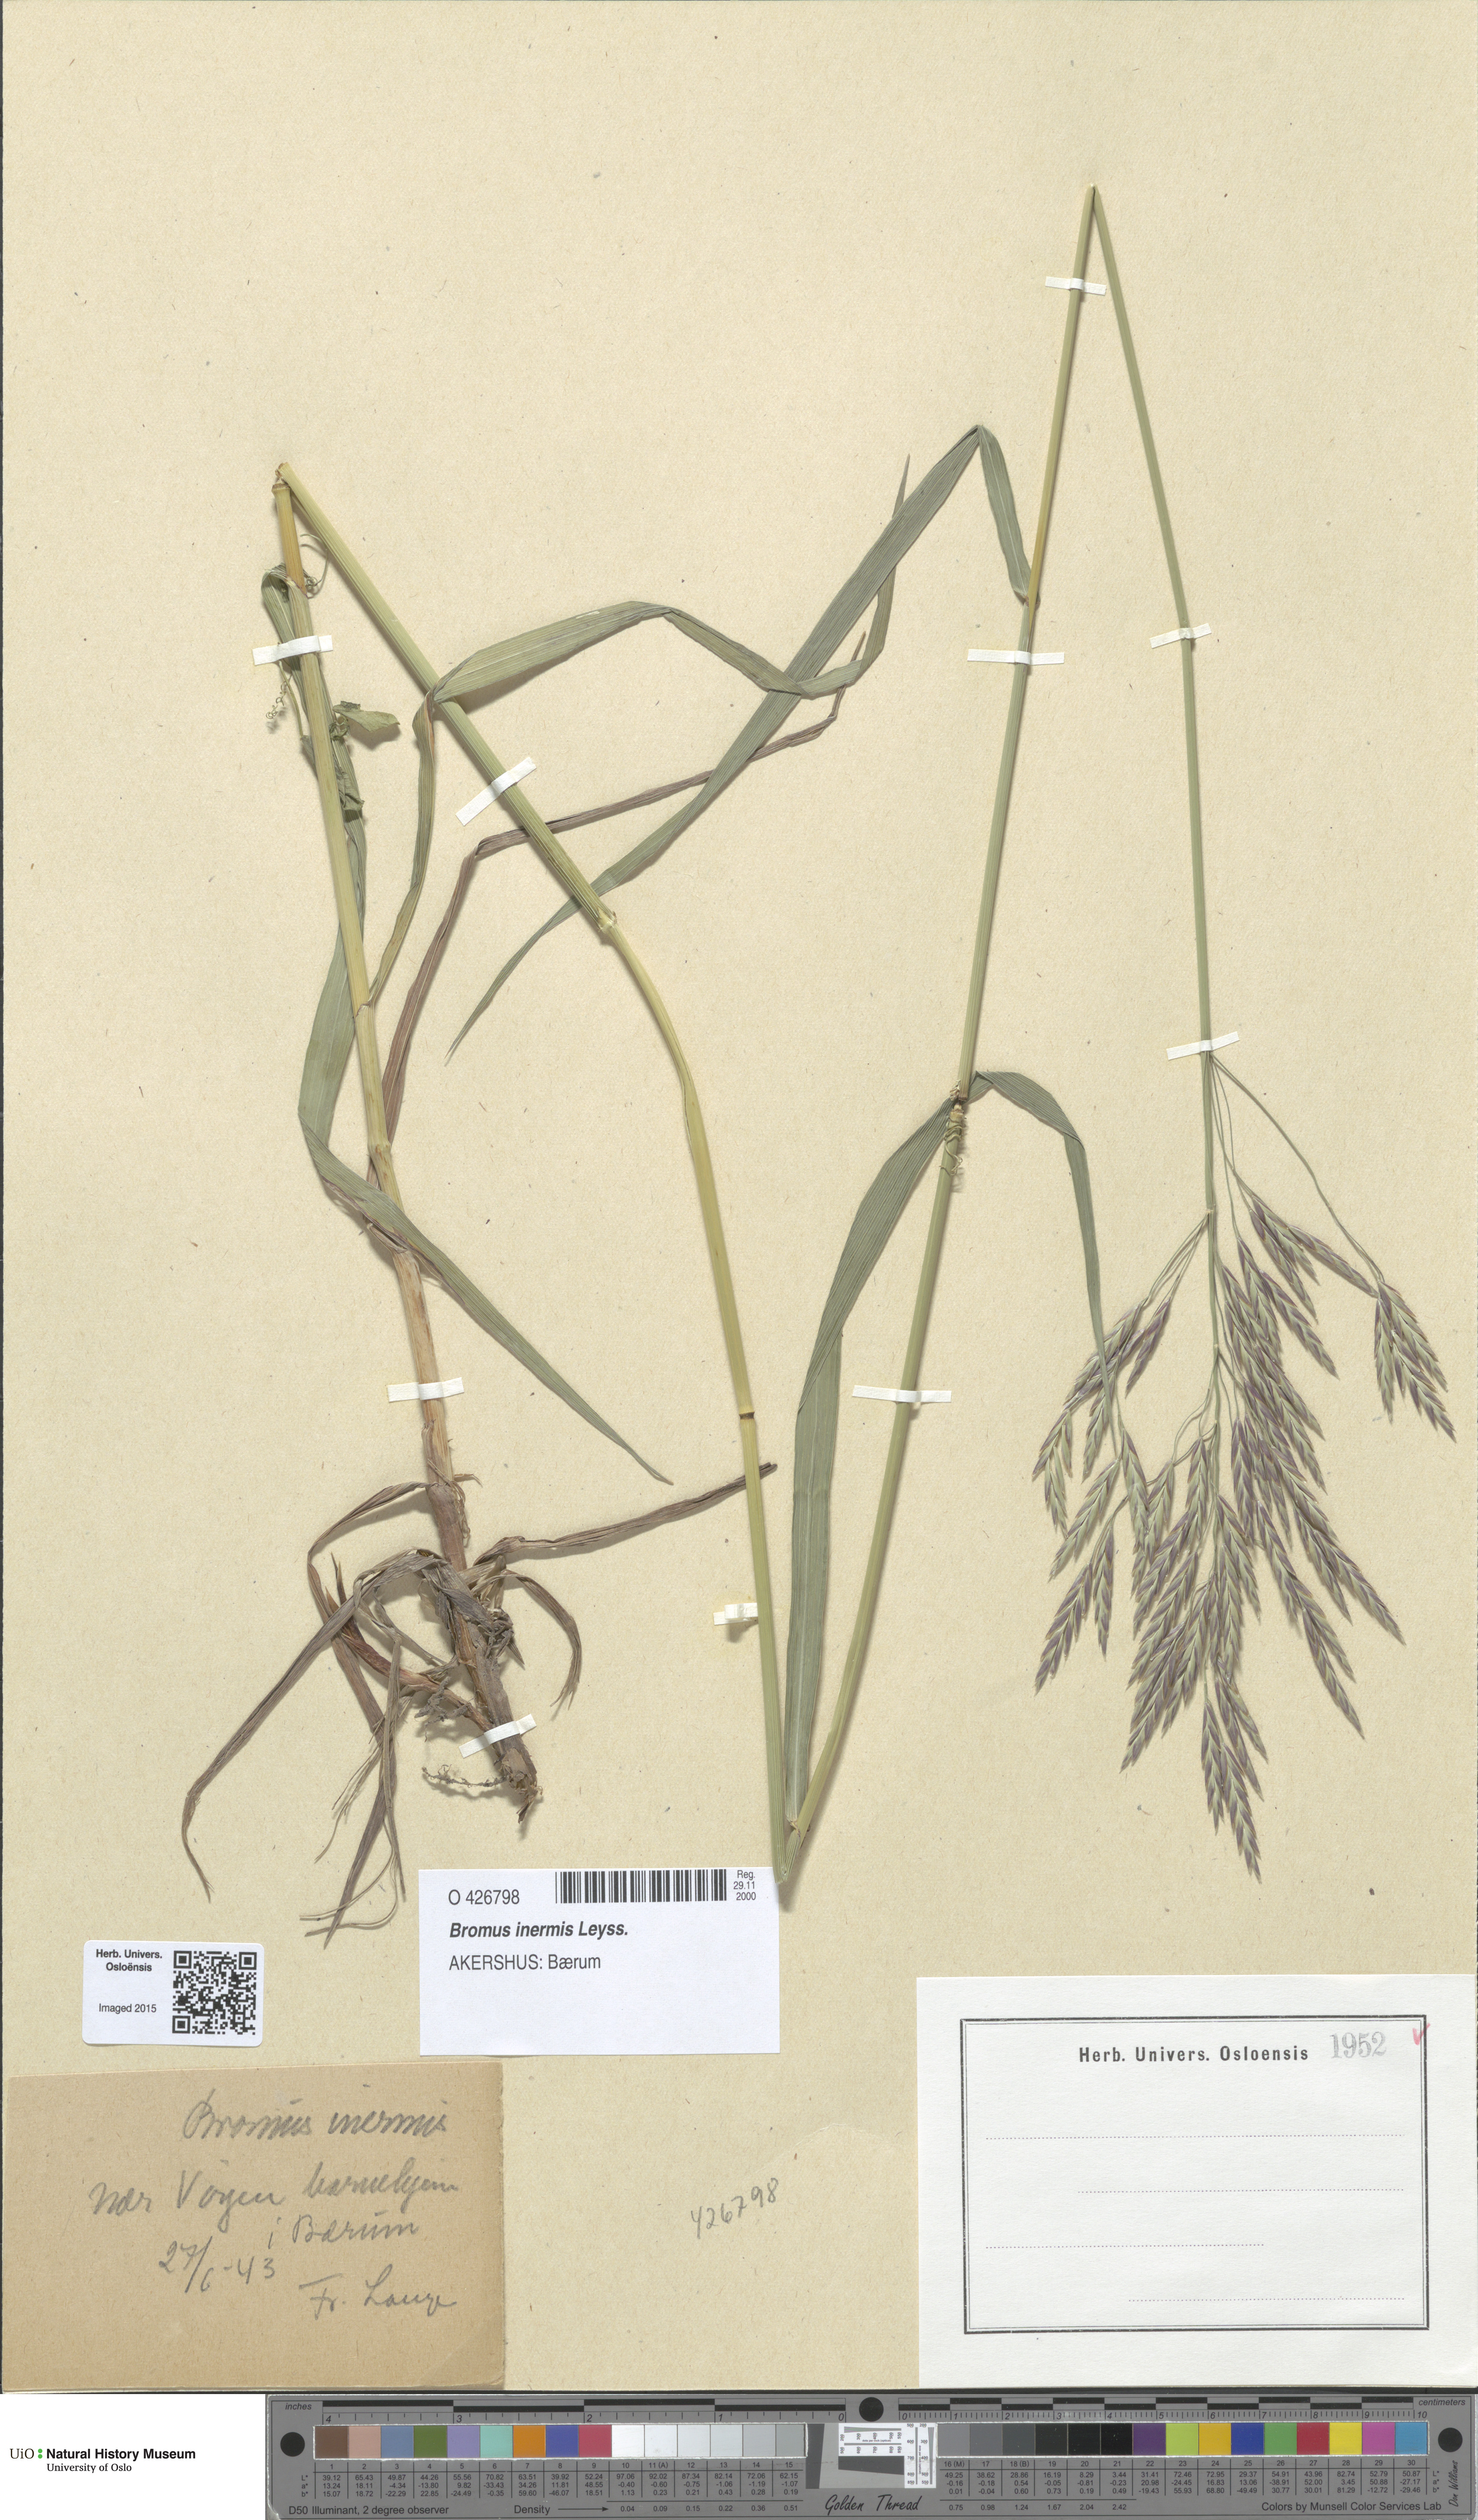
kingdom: Plantae
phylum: Tracheophyta
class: Liliopsida
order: Poales
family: Poaceae
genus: Bromus
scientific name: Bromus inermis
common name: Smooth brome
